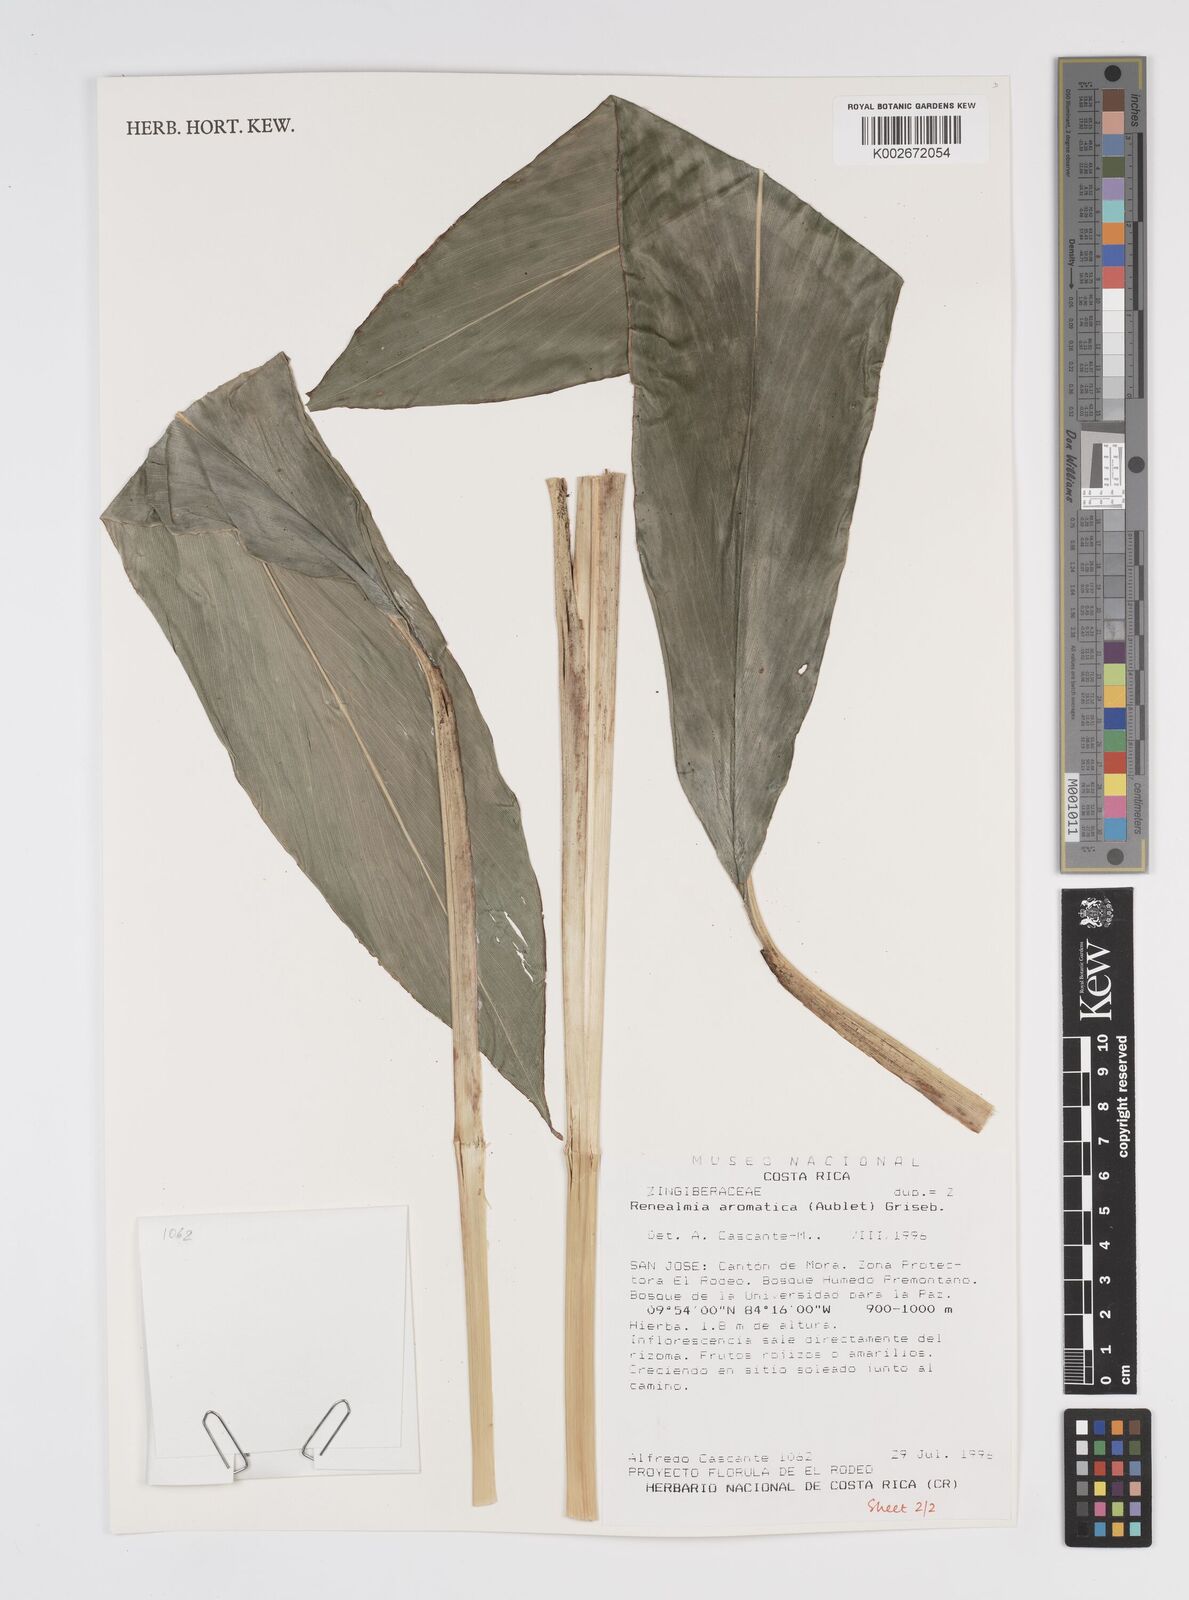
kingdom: Plantae
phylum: Tracheophyta
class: Liliopsida
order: Zingiberales
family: Zingiberaceae
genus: Renealmia
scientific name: Renealmia aromatica
